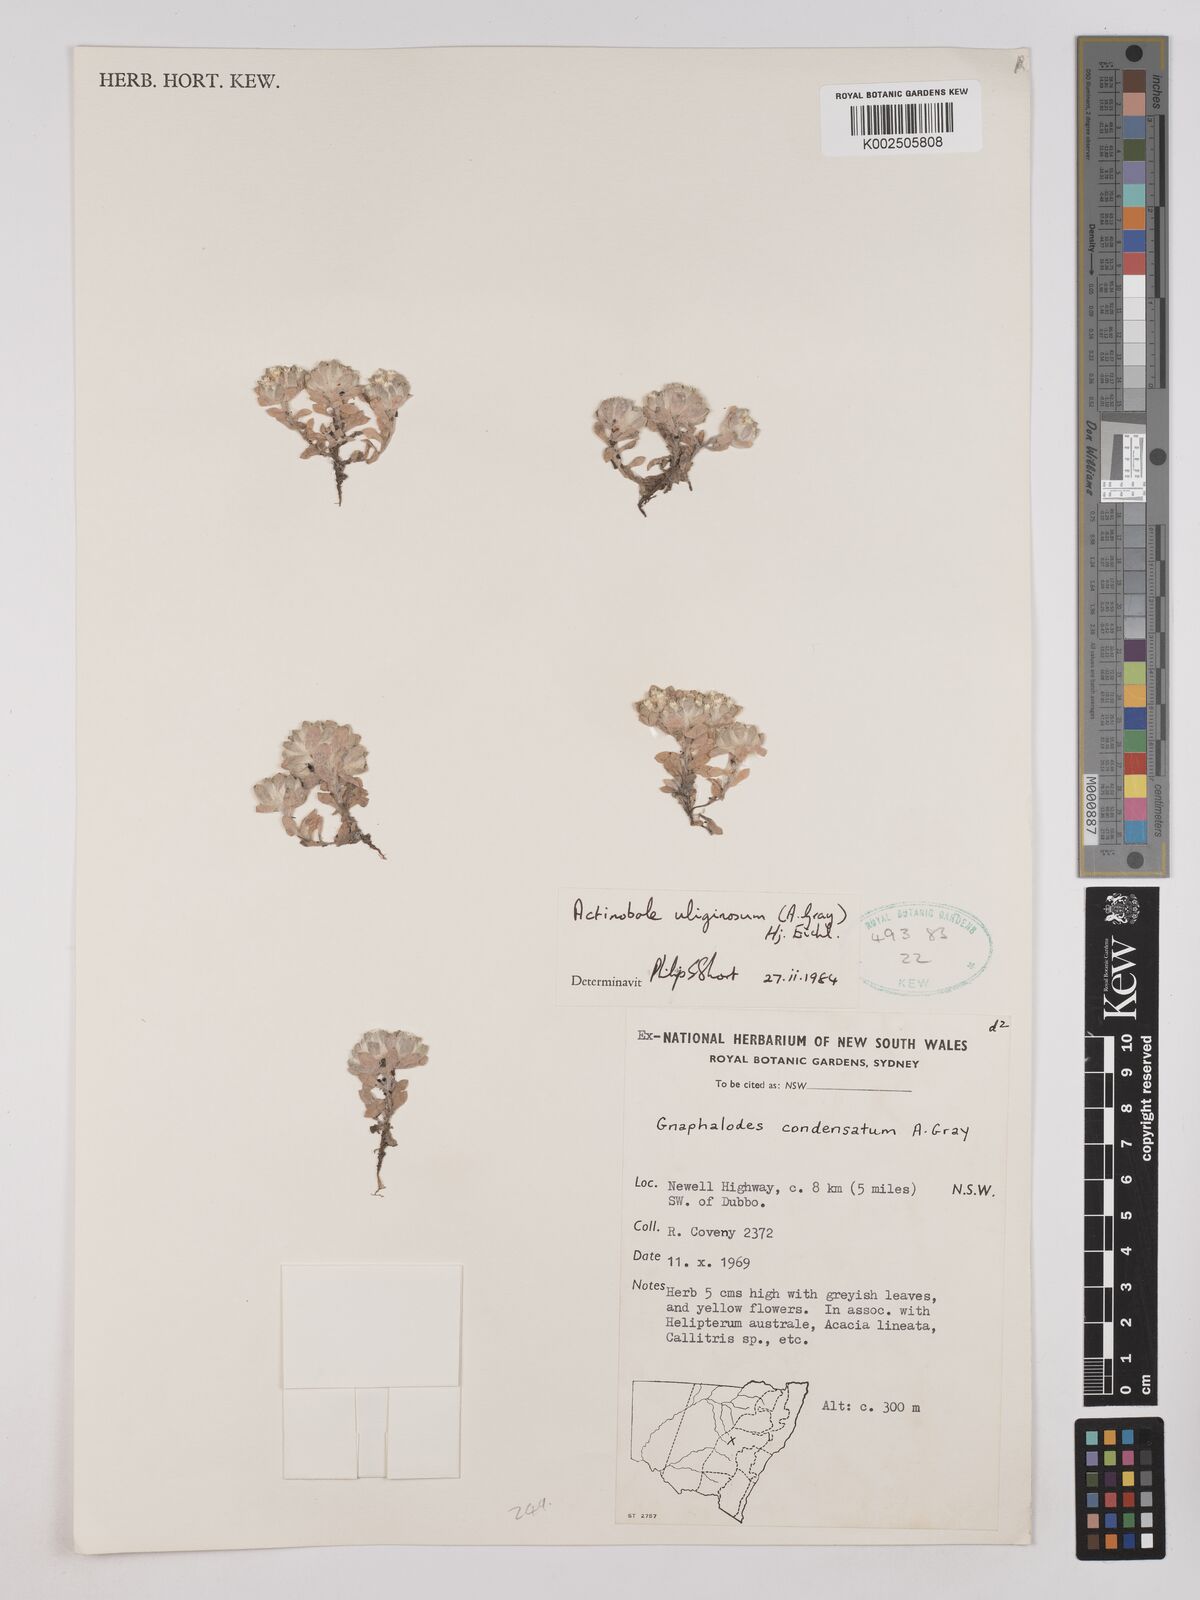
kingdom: Plantae
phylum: Tracheophyta
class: Magnoliopsida
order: Asterales
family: Asteraceae
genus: Actinobole
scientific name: Actinobole condensatum
